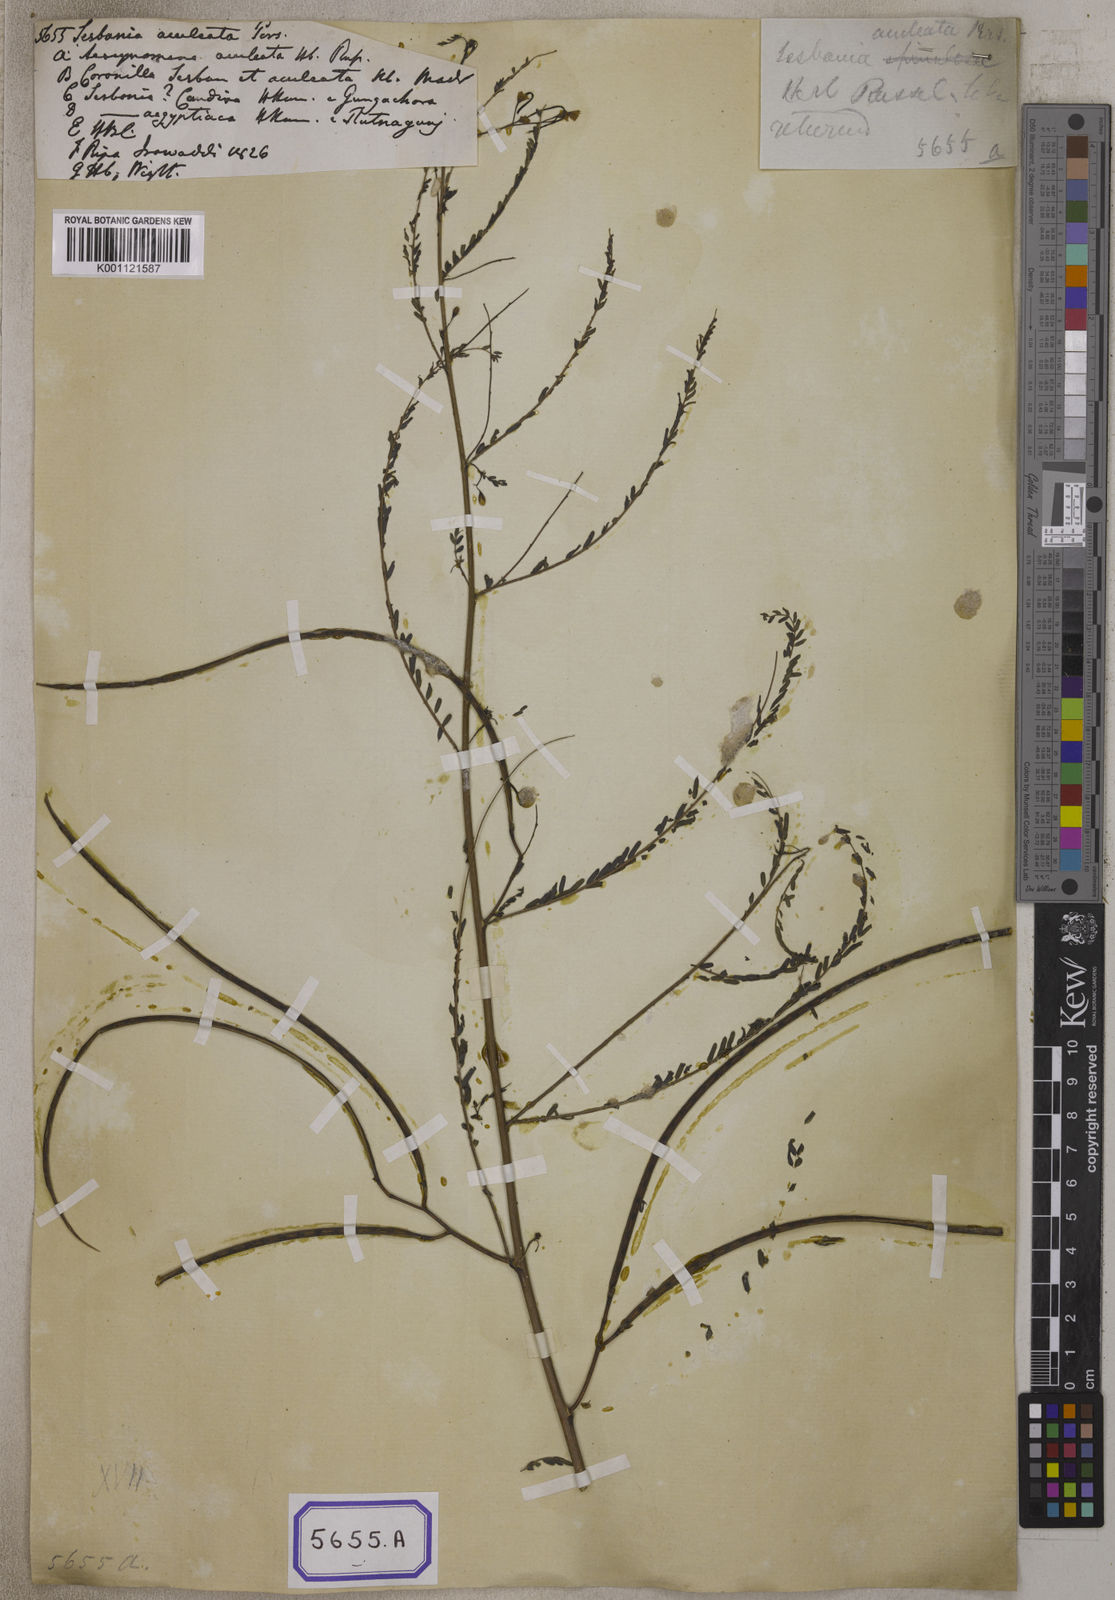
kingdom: Plantae
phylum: Tracheophyta
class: Magnoliopsida
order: Fabales
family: Fabaceae
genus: Sesbania
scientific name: Sesbania bispinosa
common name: Sesbania pea
